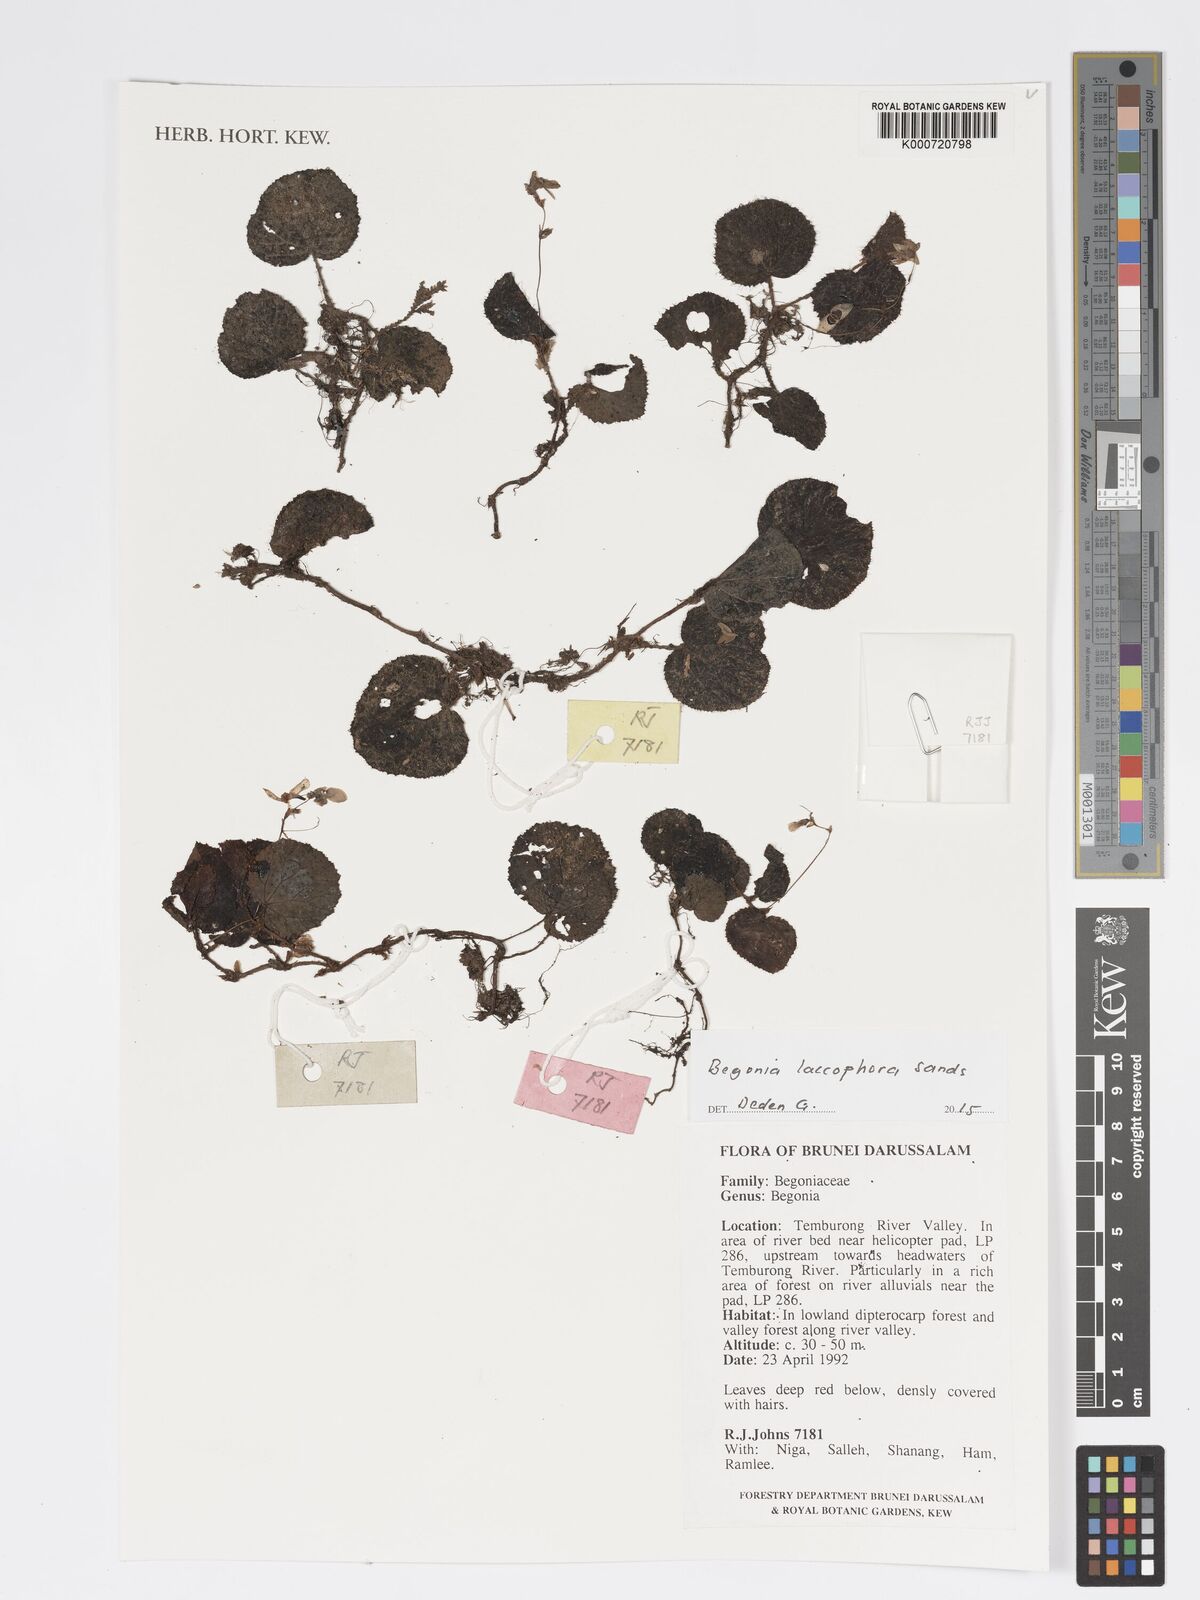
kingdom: Plantae
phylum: Tracheophyta
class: Magnoliopsida
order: Cucurbitales
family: Begoniaceae
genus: Begonia
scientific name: Begonia laccophora
